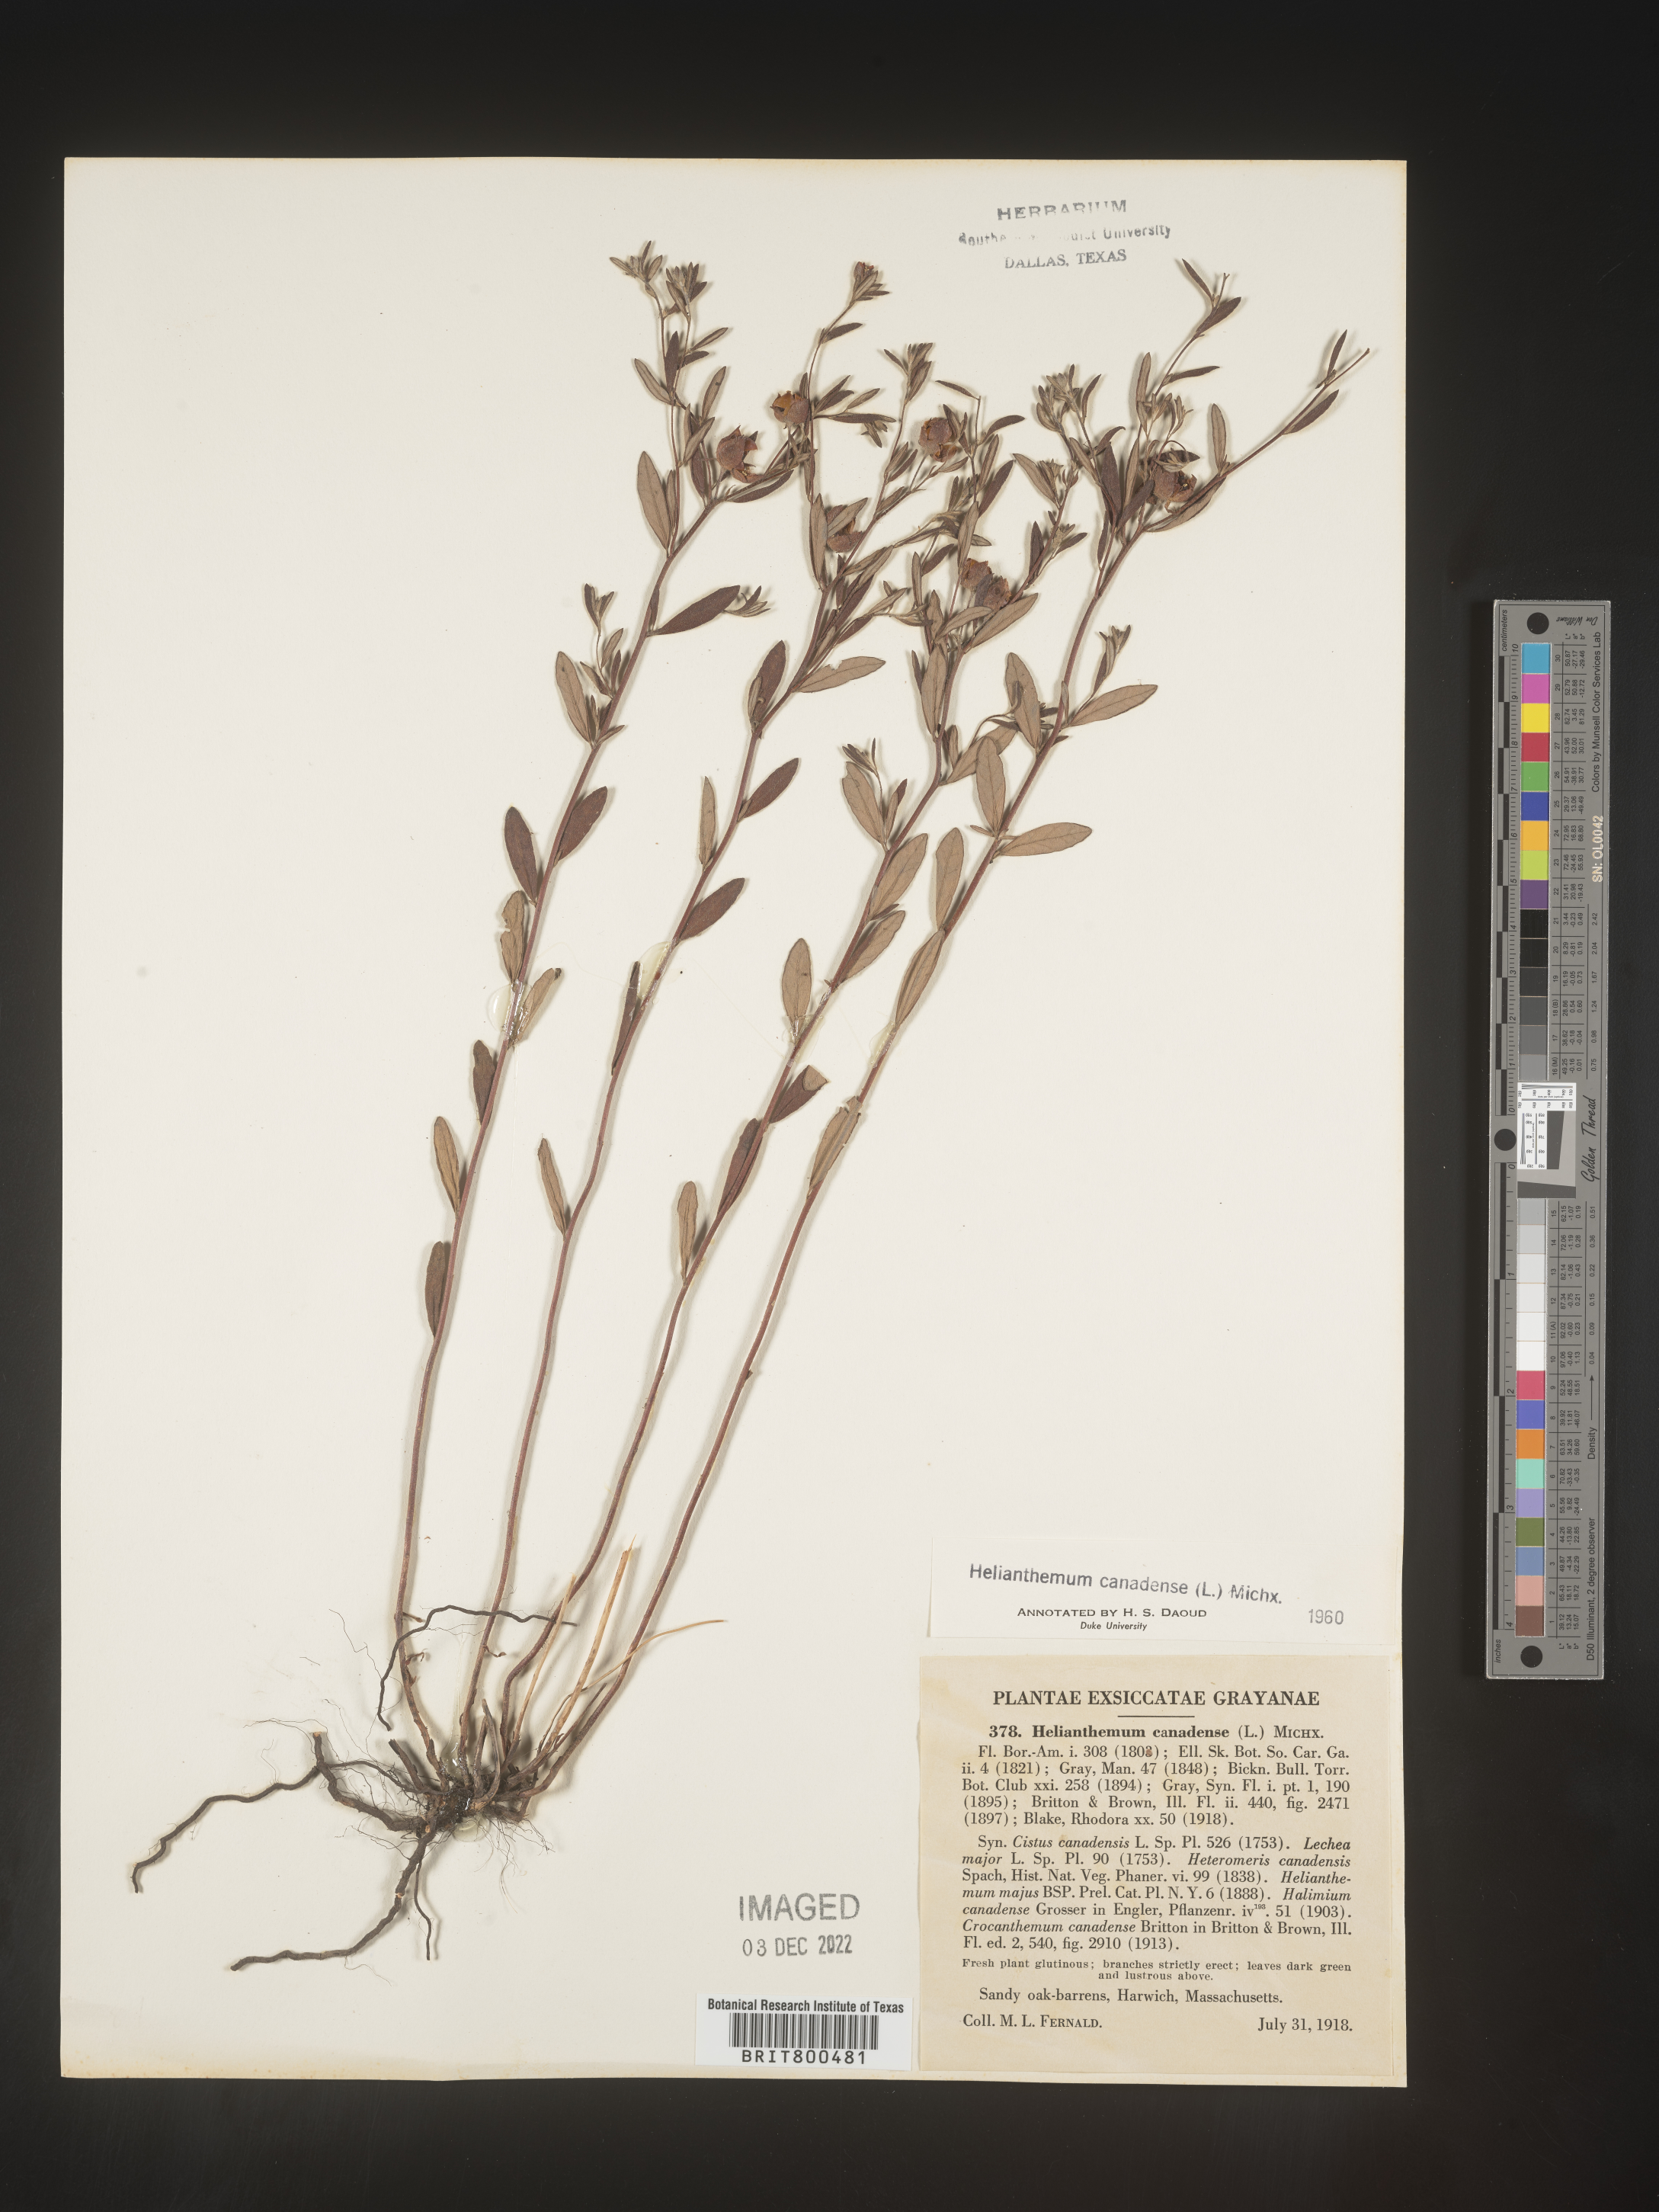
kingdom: Plantae
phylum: Tracheophyta
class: Magnoliopsida
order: Malvales
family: Cistaceae
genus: Crocanthemum
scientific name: Crocanthemum canadense
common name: Canada frostweed
